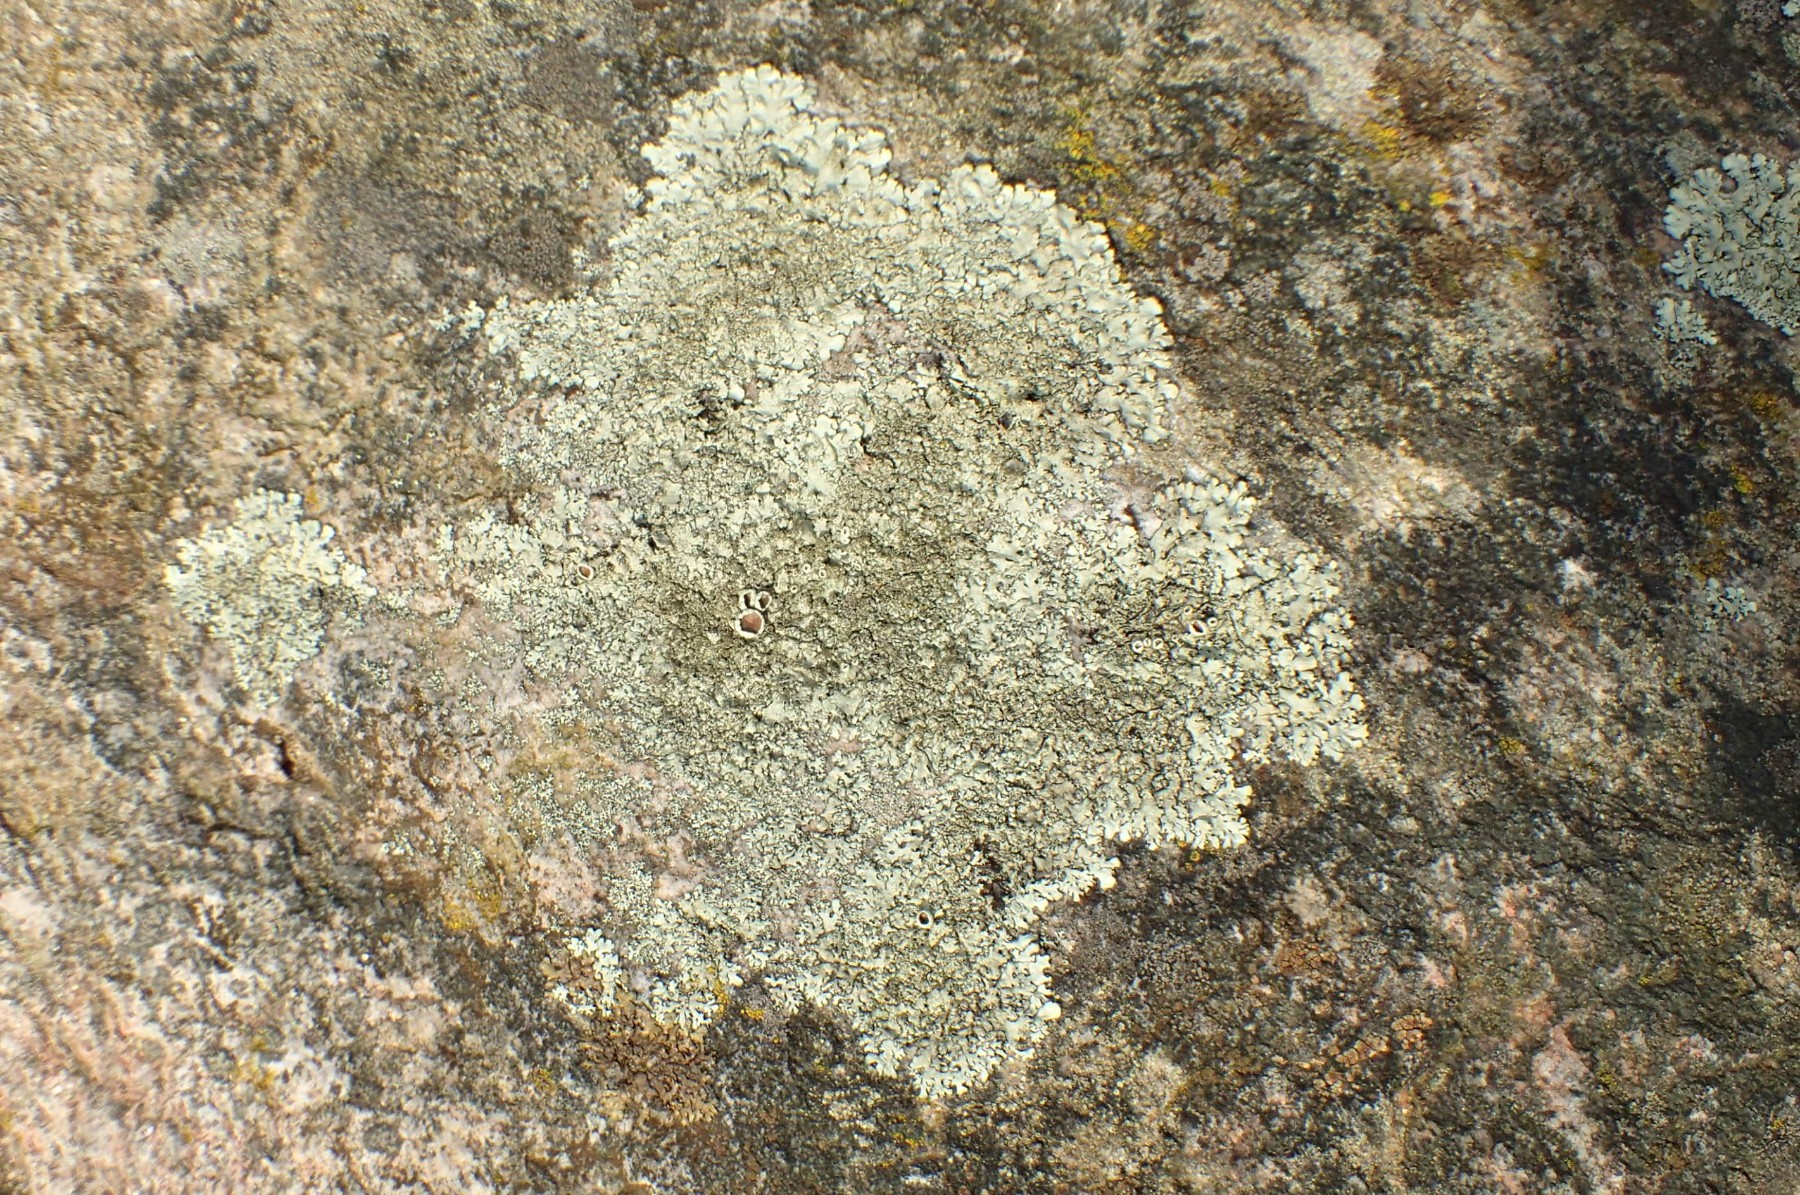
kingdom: Fungi
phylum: Ascomycota
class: Lecanoromycetes
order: Lecanorales
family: Parmeliaceae
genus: Xanthoparmelia
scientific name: Xanthoparmelia conspersa
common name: messing-skållav
